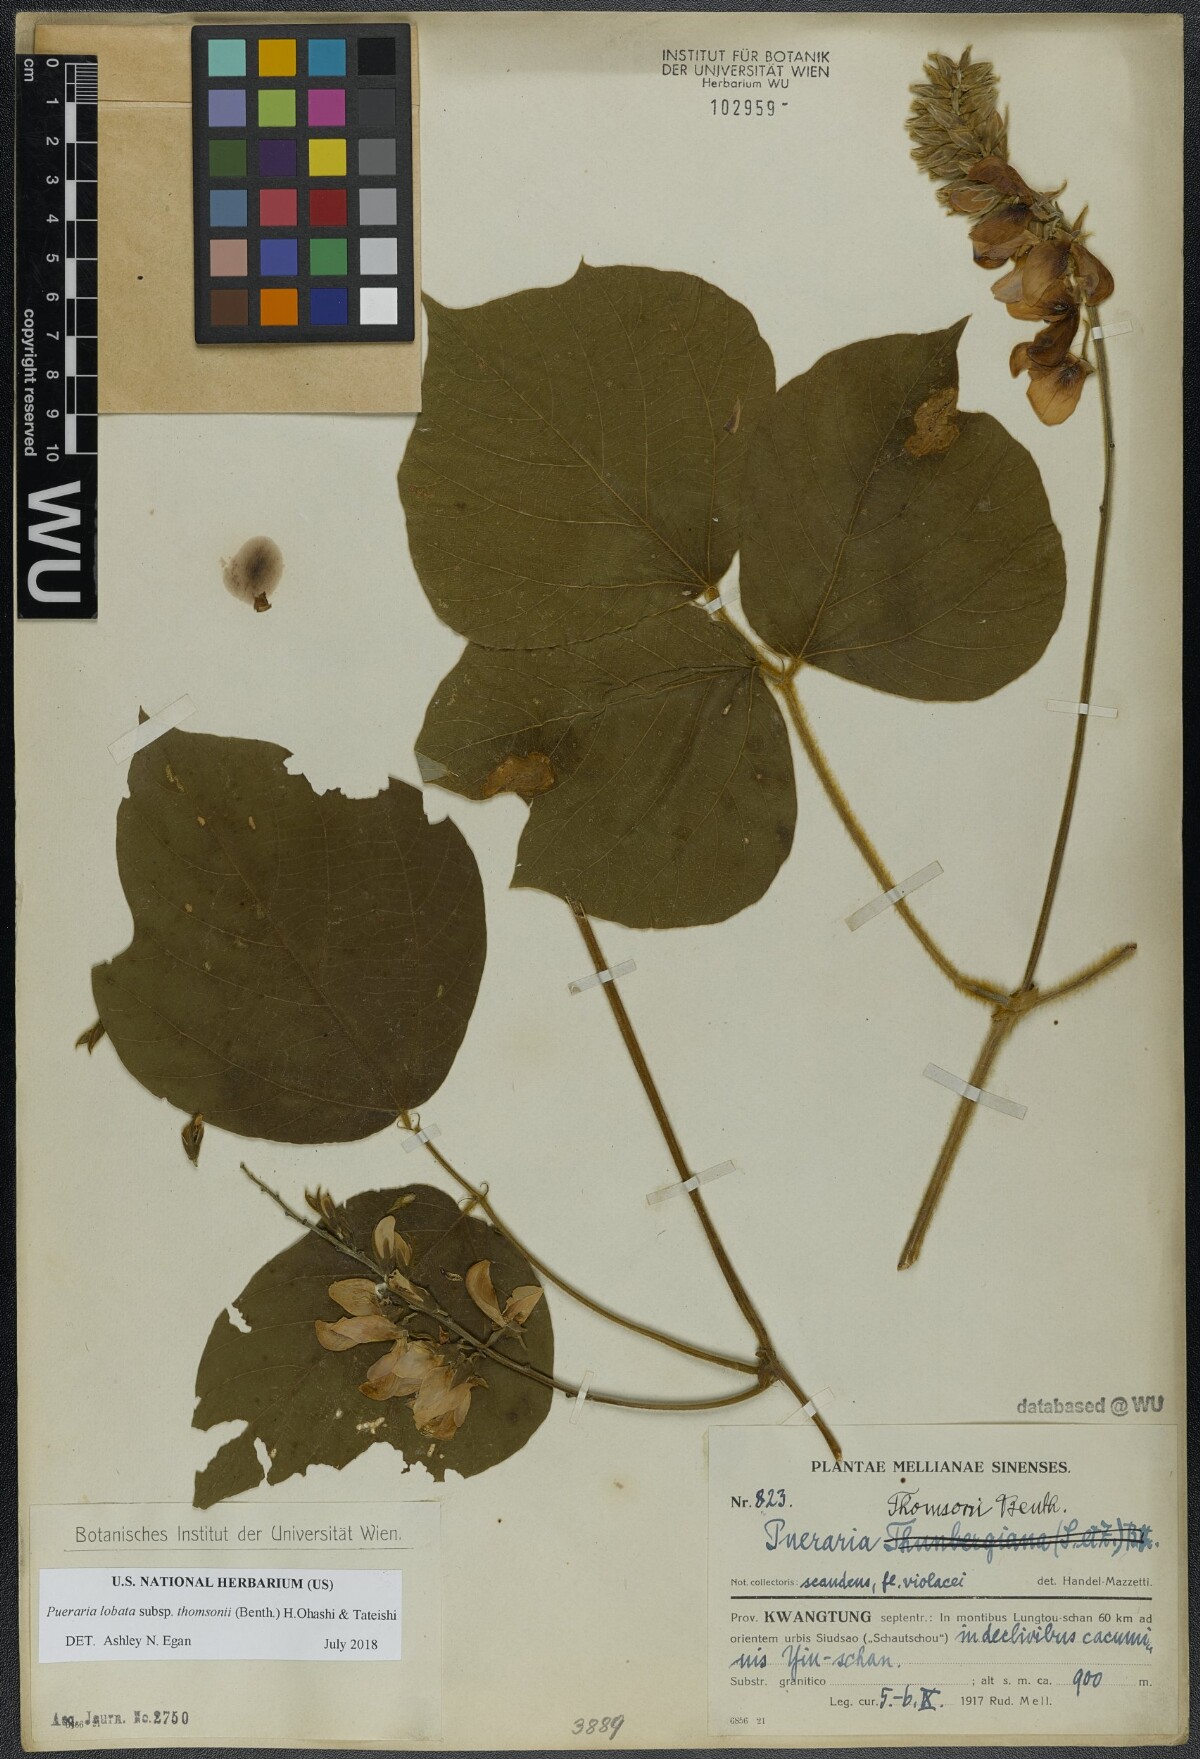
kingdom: Plantae
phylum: Tracheophyta
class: Magnoliopsida
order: Fabales
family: Fabaceae
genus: Pueraria
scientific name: Pueraria montana
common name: Kudzu
